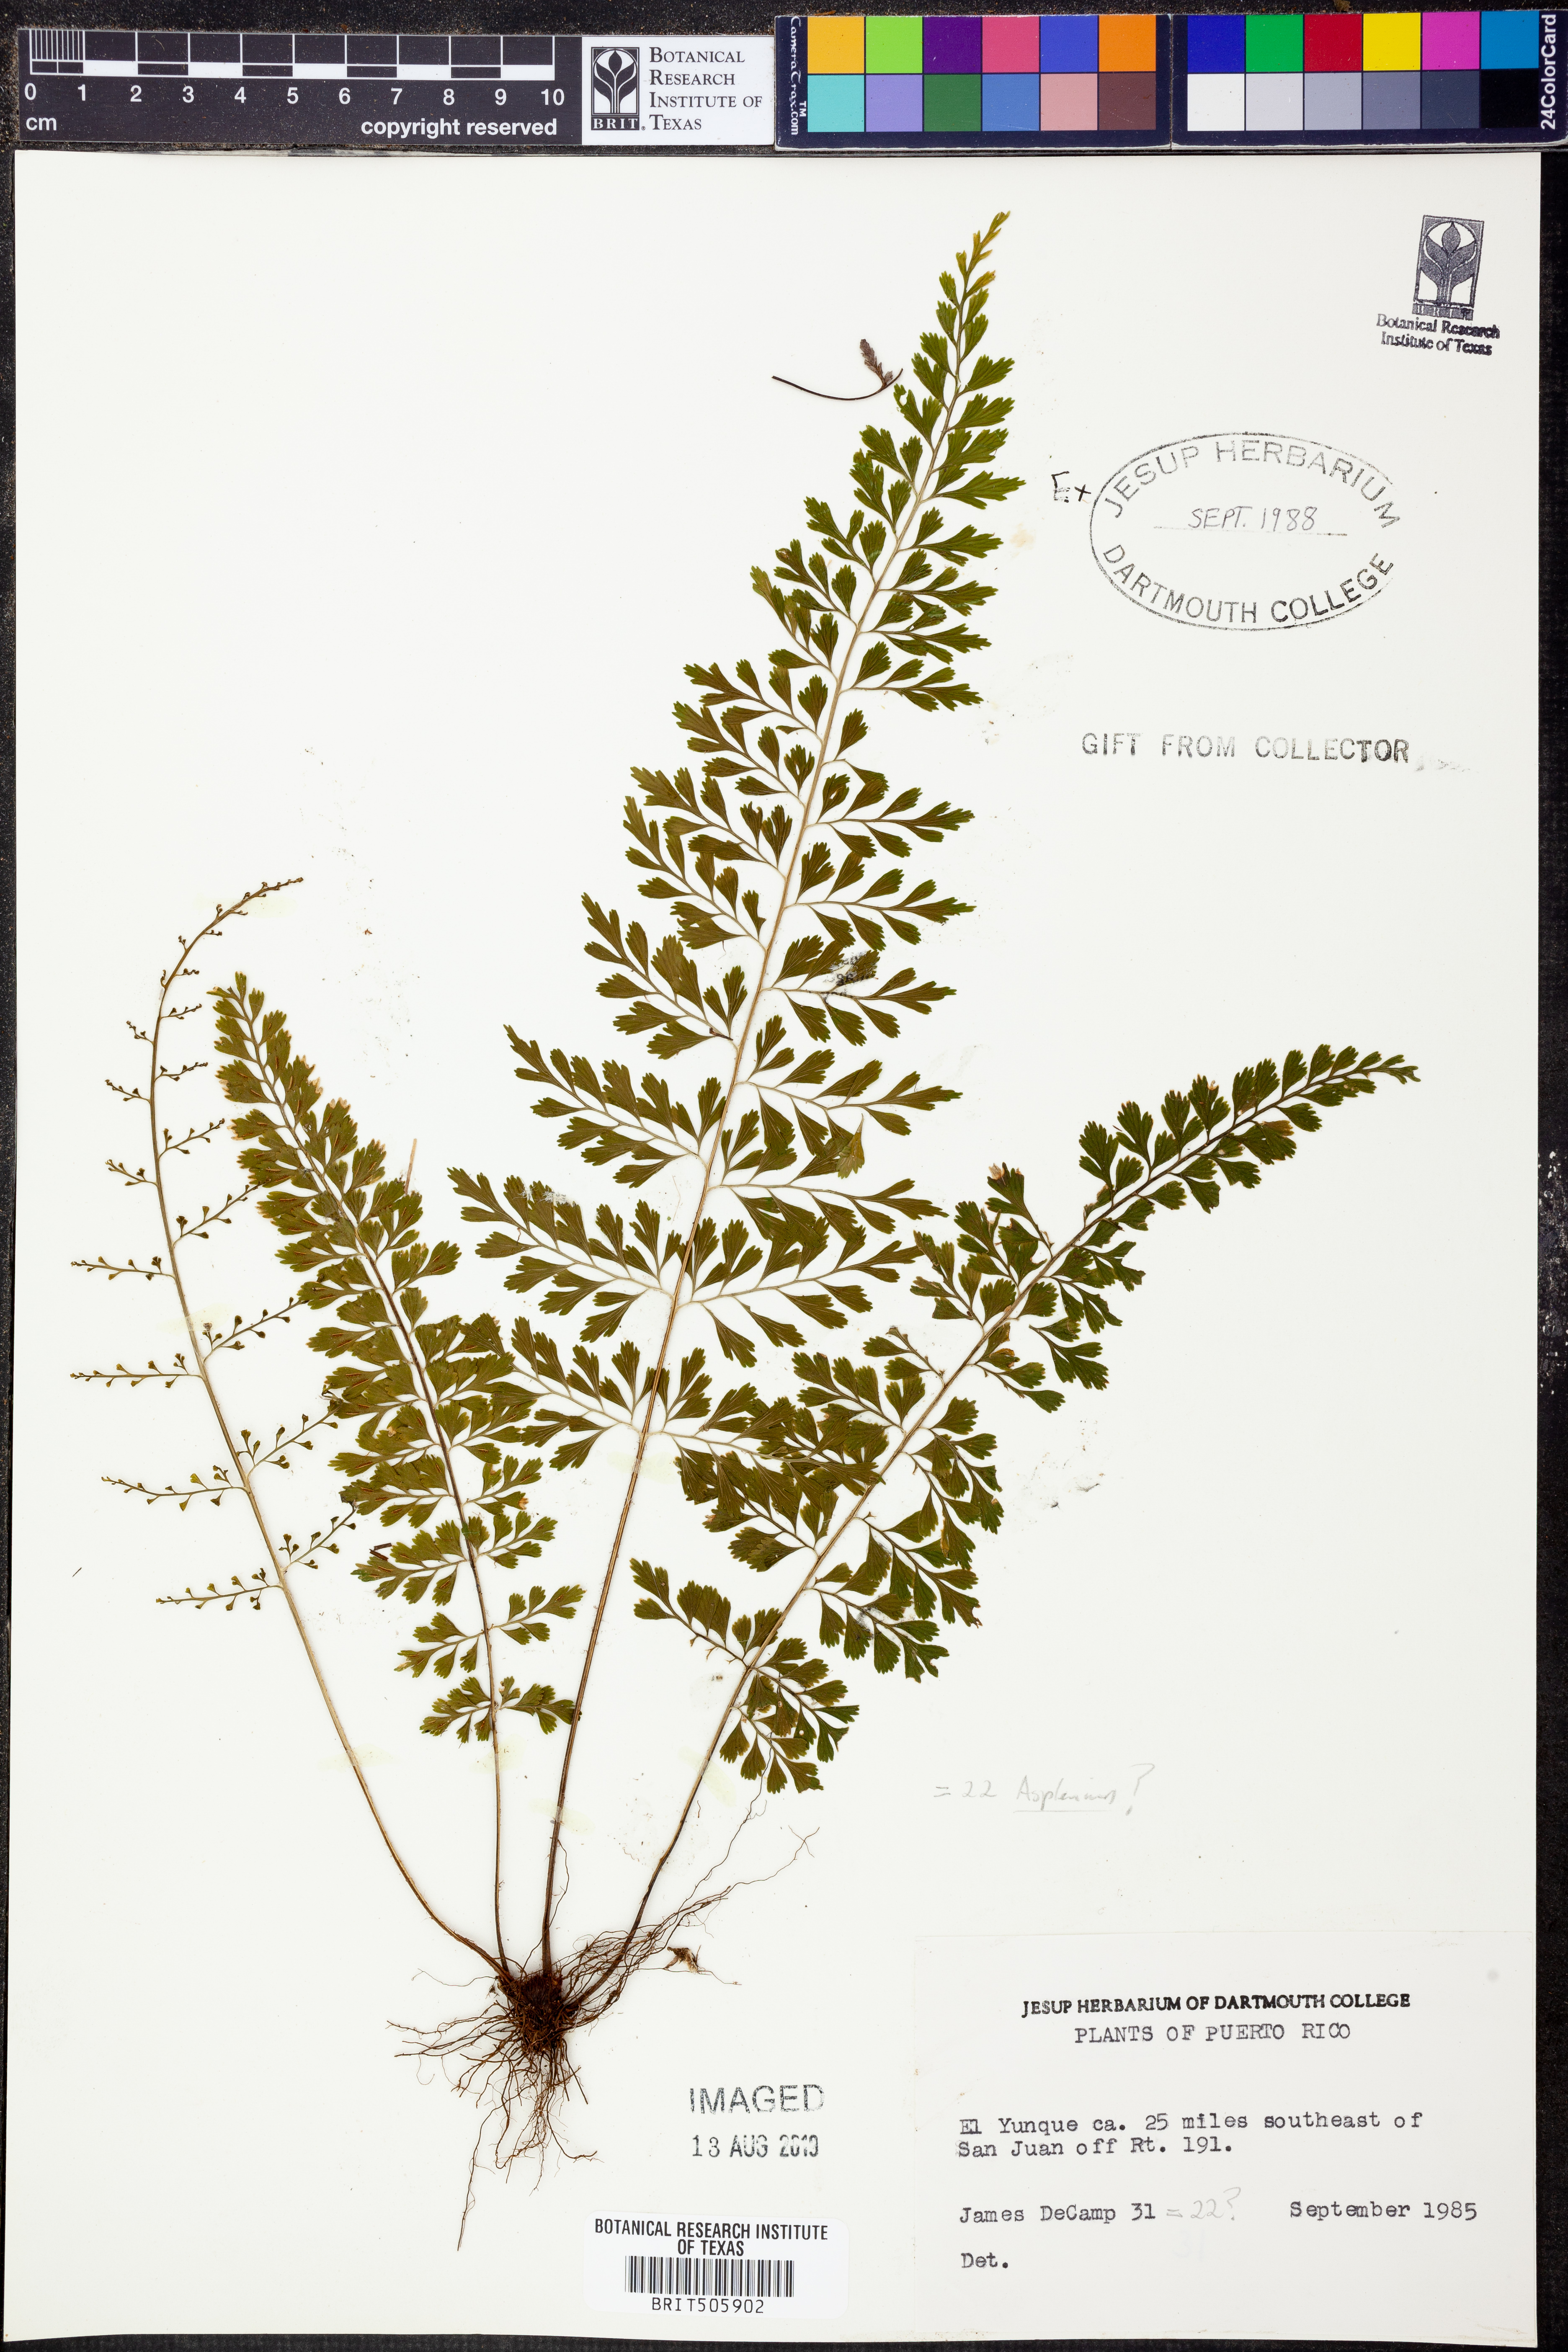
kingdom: Plantae
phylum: Tracheophyta
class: Polypodiopsida
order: Polypodiales
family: Aspleniaceae
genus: Asplenium
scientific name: Asplenium
